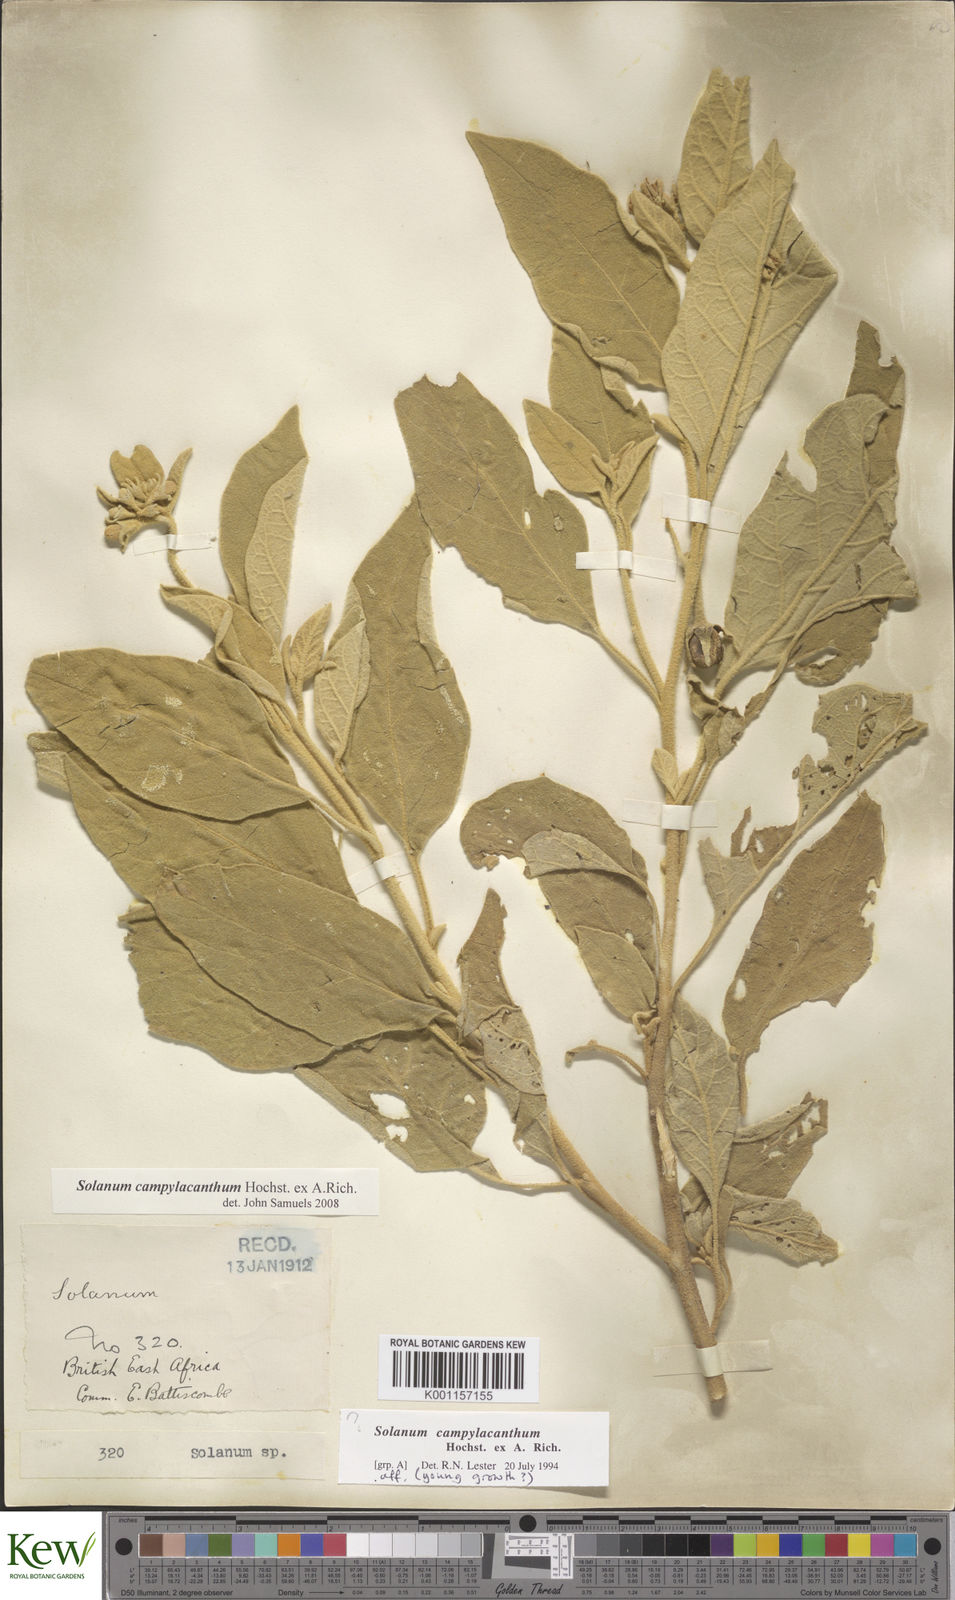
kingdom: Plantae
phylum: Tracheophyta
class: Magnoliopsida
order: Solanales
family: Solanaceae
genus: Solanum
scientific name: Solanum campylacanthum
